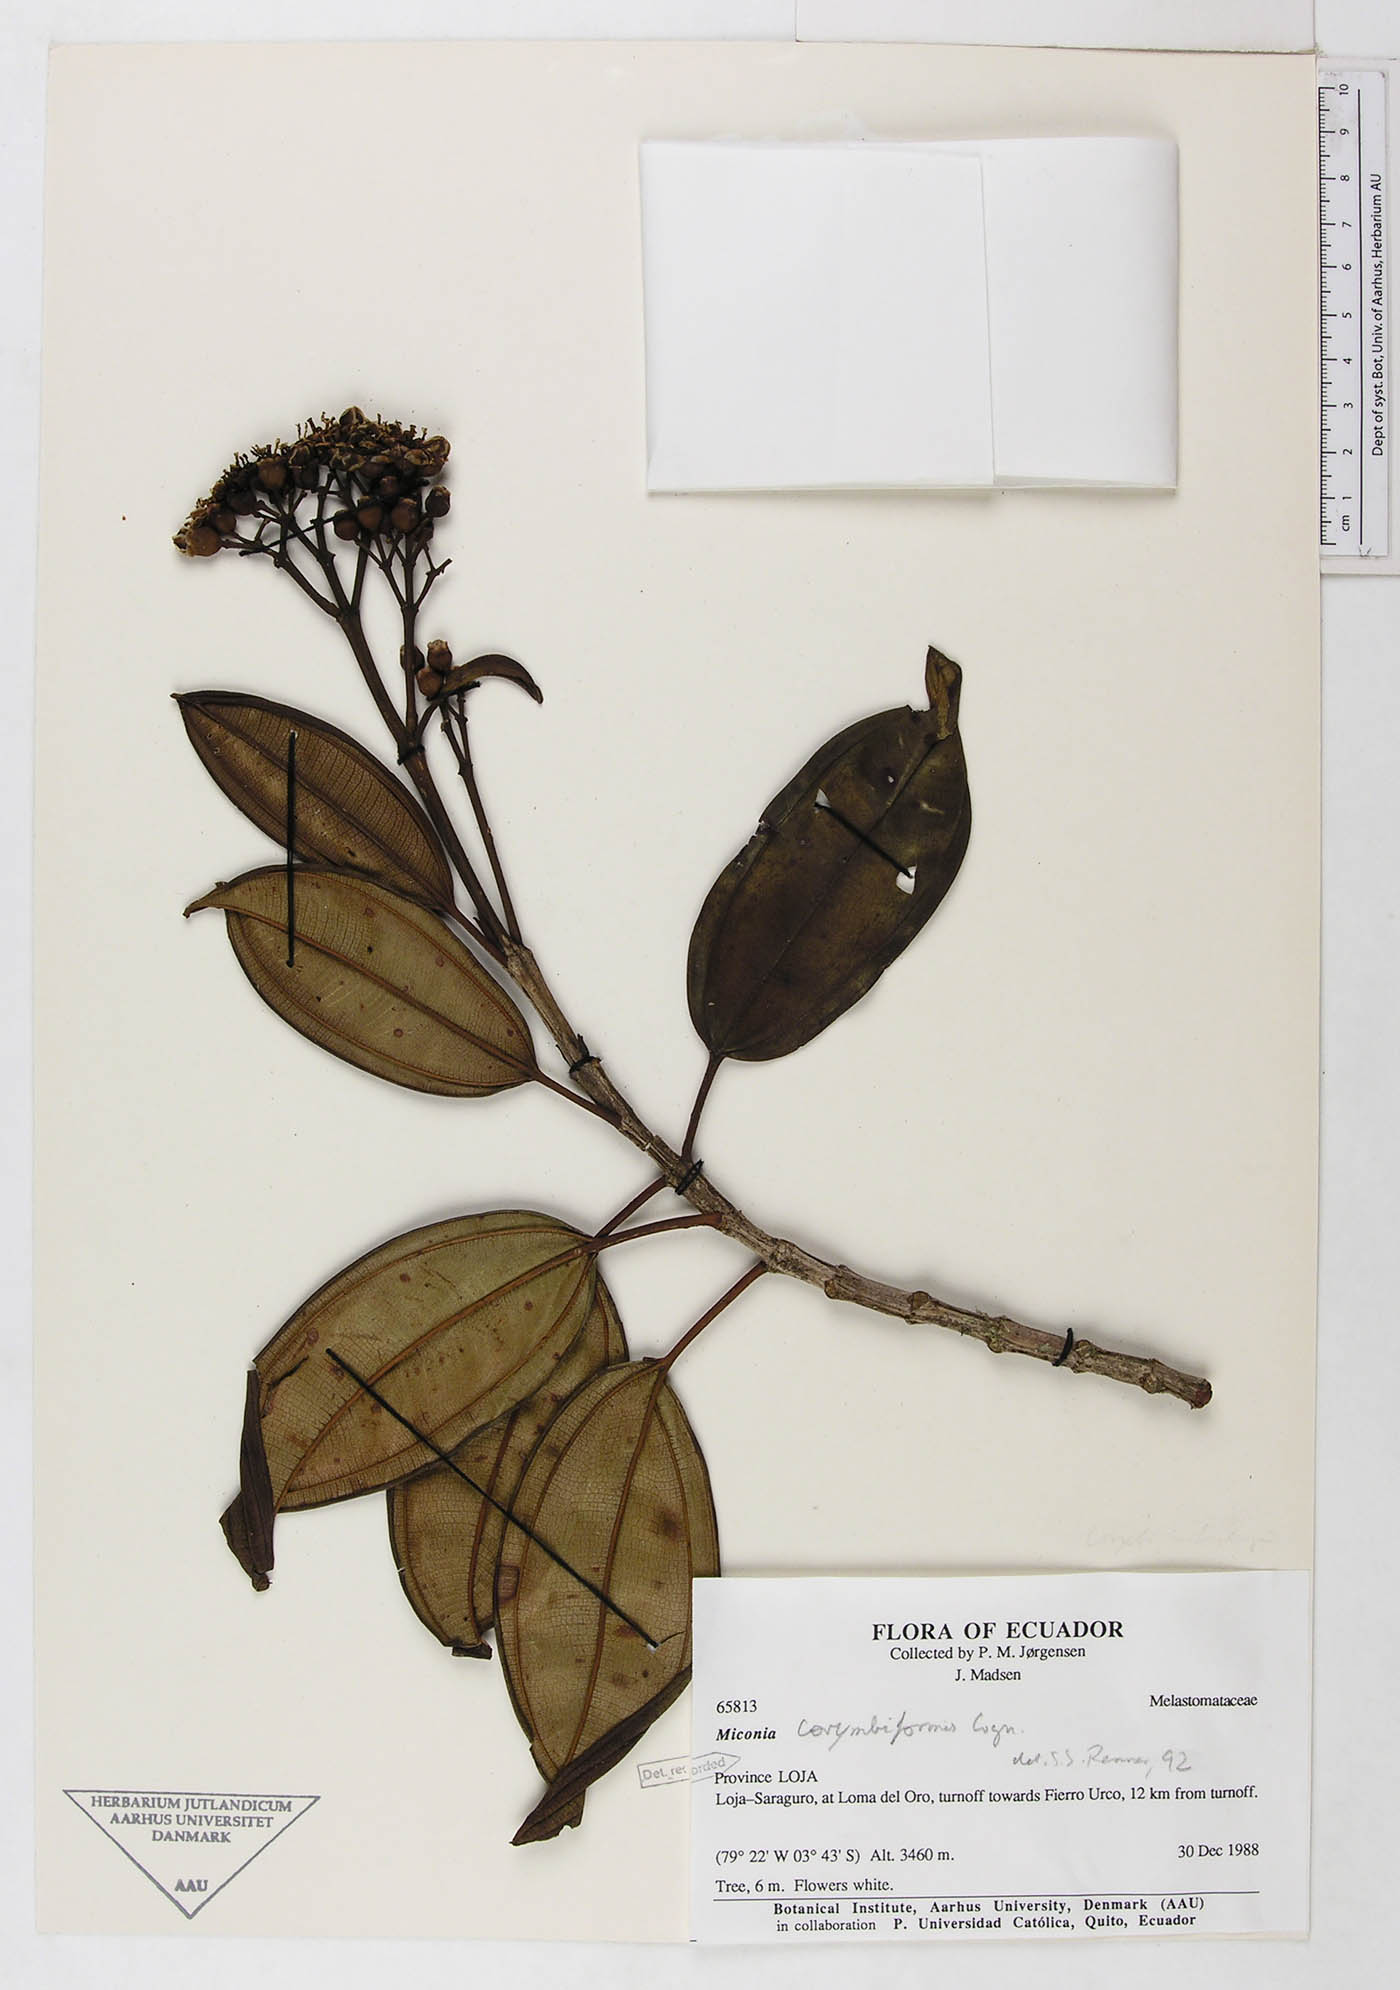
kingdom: Plantae
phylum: Tracheophyta
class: Magnoliopsida
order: Myrtales
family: Melastomataceae
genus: Miconia
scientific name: Miconia corymbiformis
